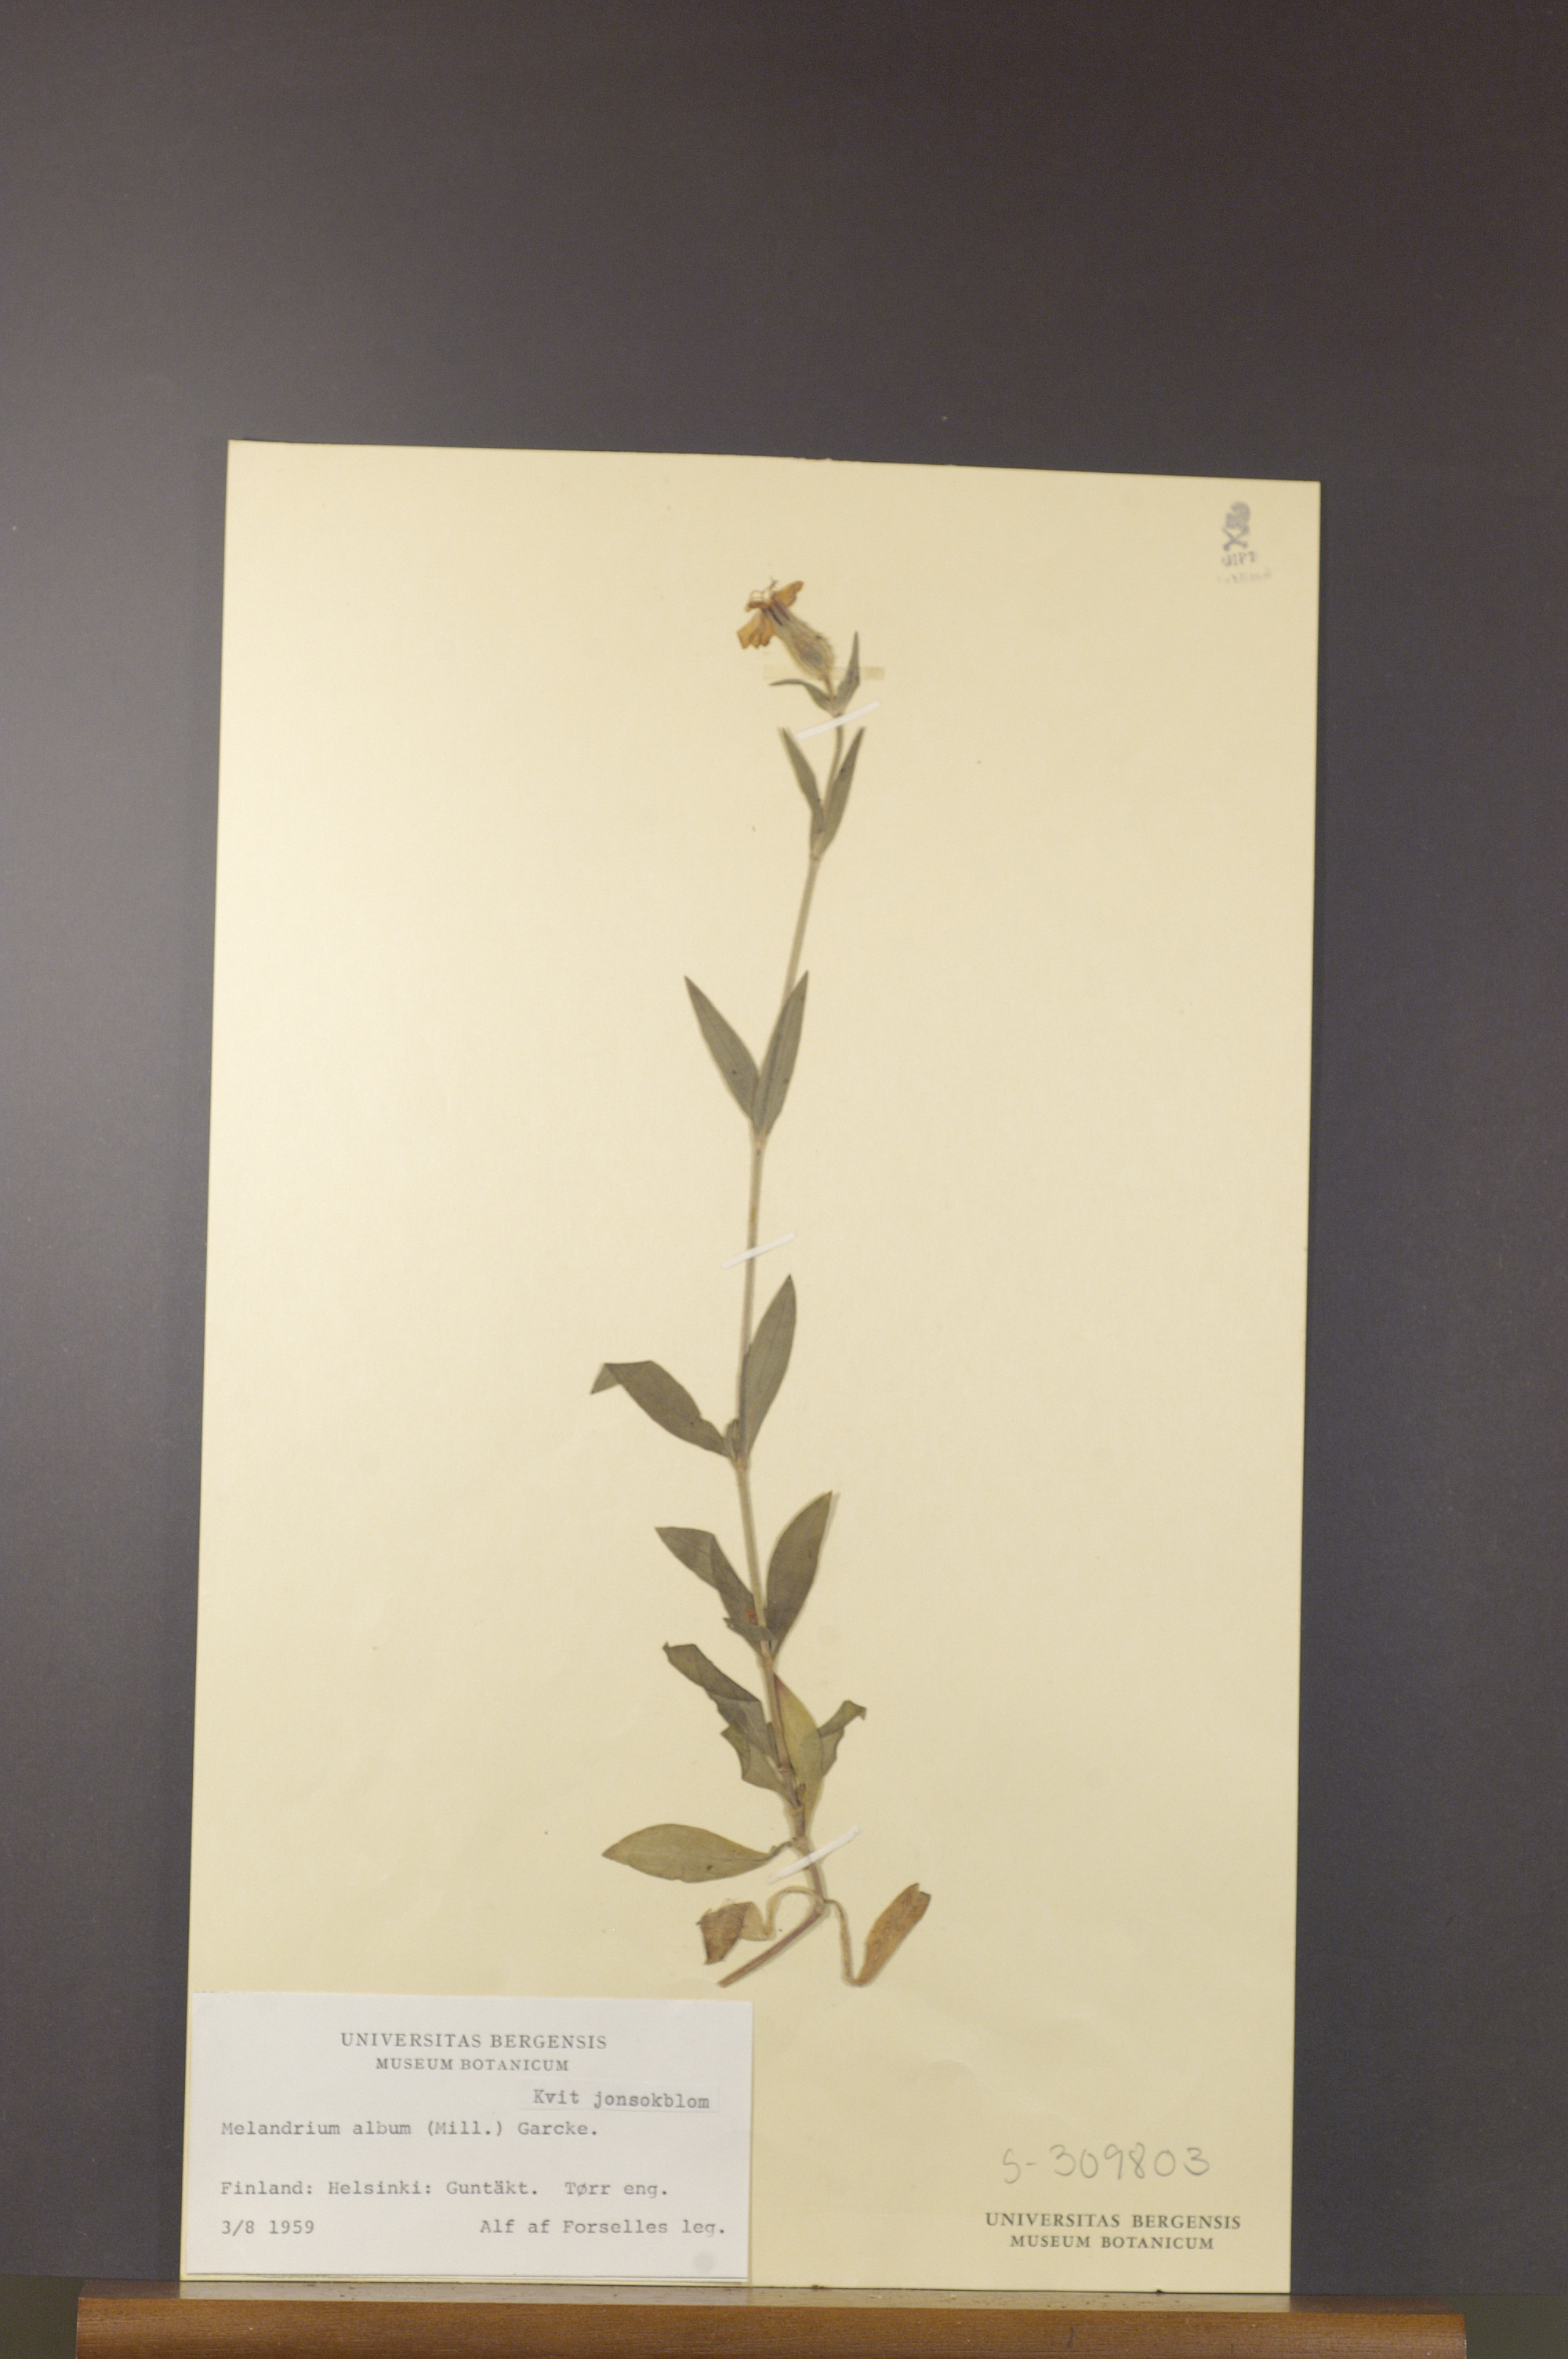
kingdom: Plantae
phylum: Tracheophyta
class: Magnoliopsida
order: Caryophyllales
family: Caryophyllaceae
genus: Silene
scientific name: Silene latifolia
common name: White campion
